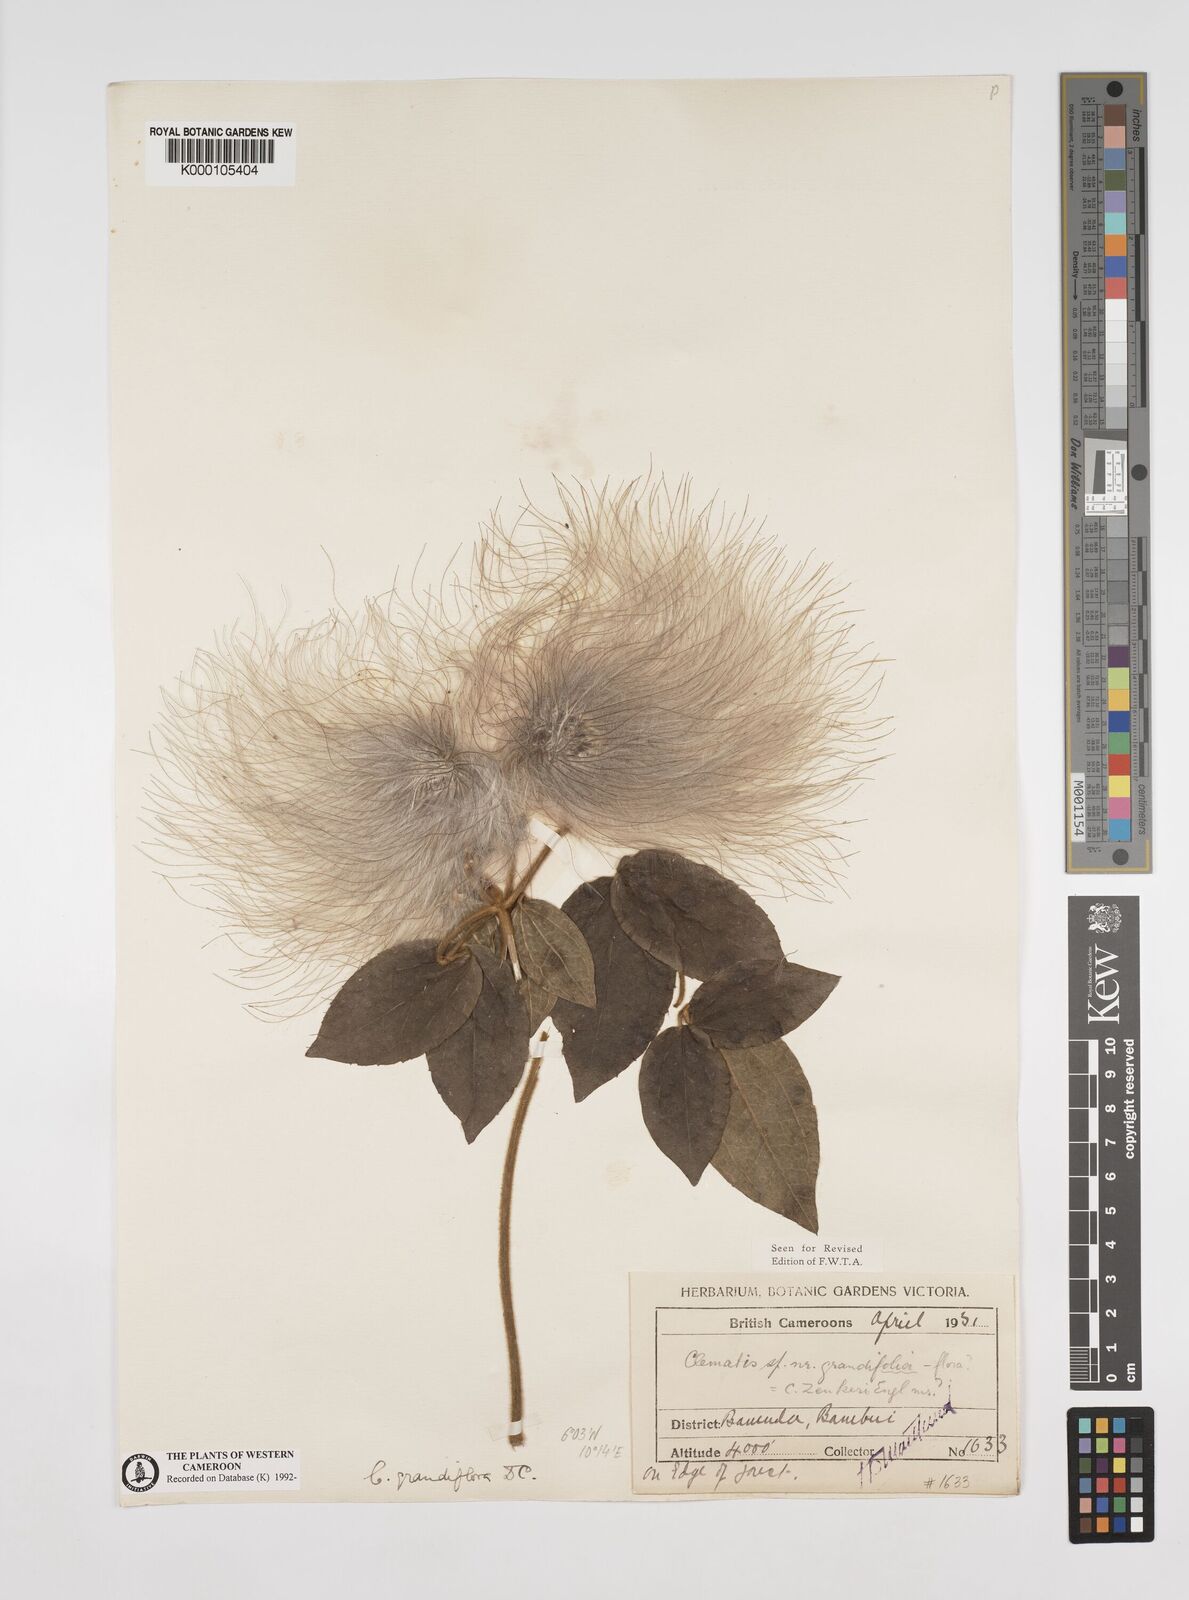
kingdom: Plantae
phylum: Tracheophyta
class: Magnoliopsida
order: Ranunculales
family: Ranunculaceae
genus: Clematis
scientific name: Clematis grandiflora
